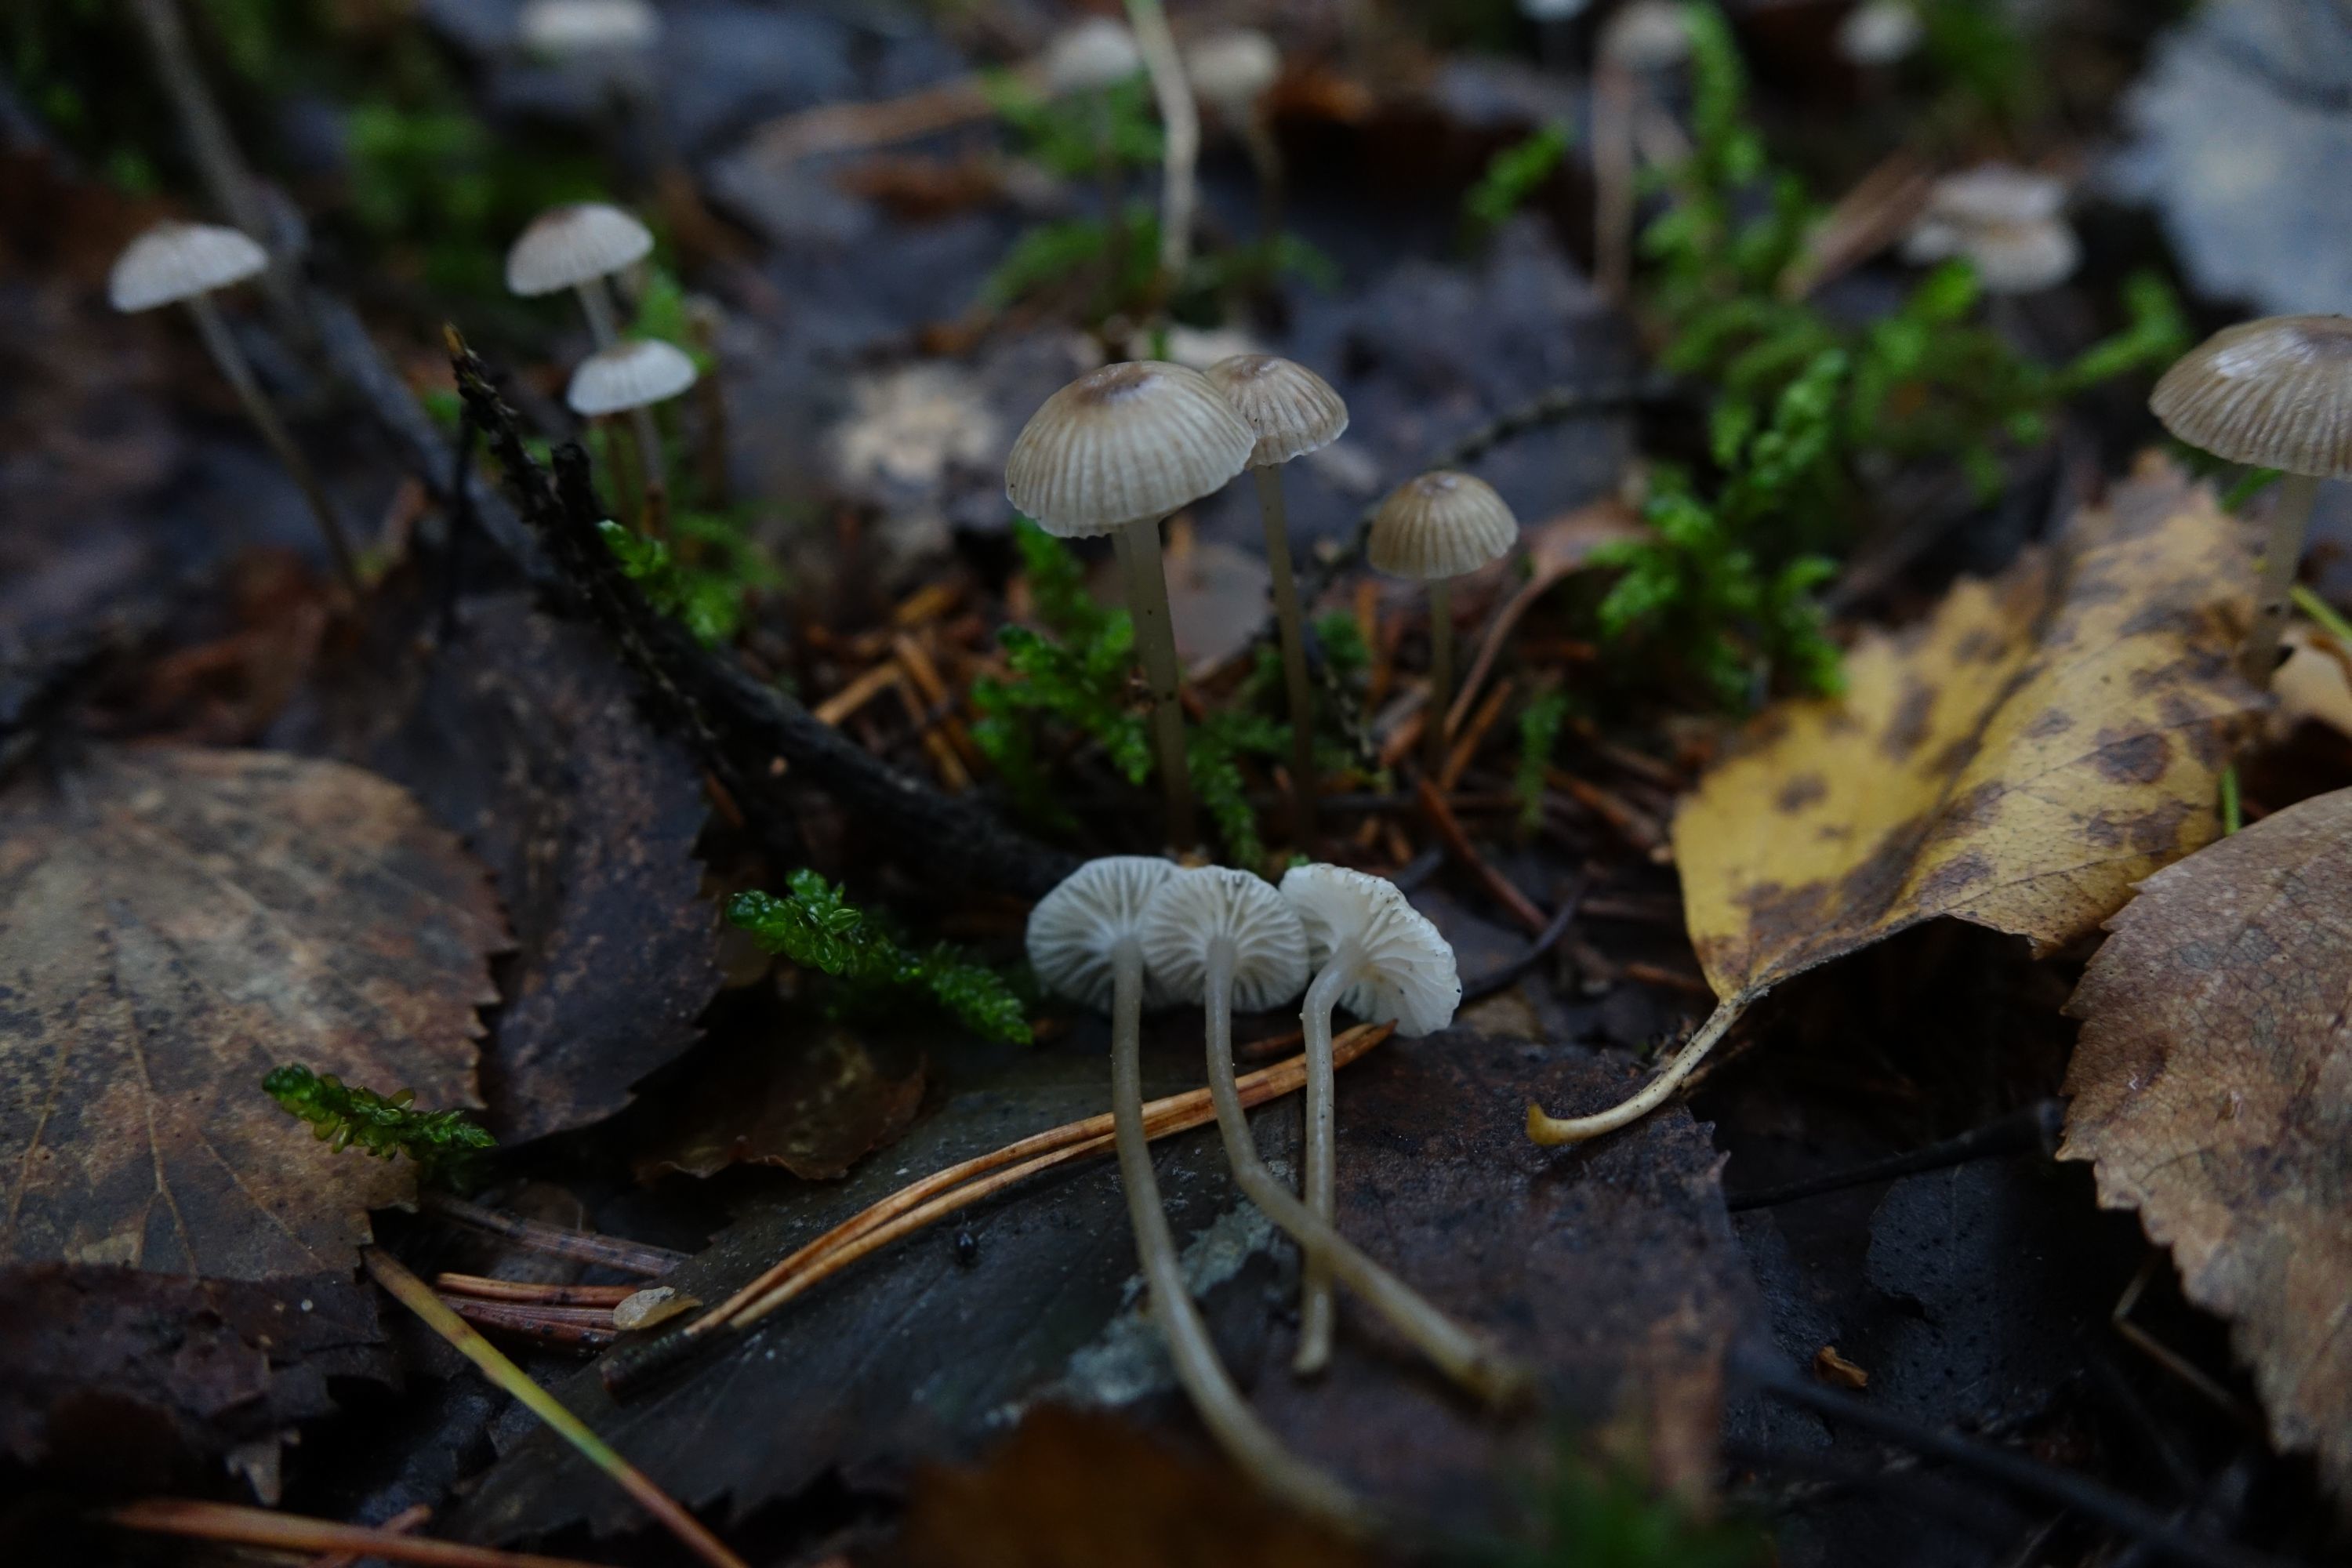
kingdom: Fungi
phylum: Basidiomycota
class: Agaricomycetes
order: Agaricales
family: Mycenaceae
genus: Mycena
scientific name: Mycena vulgaris
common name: Vulgar bonnet
